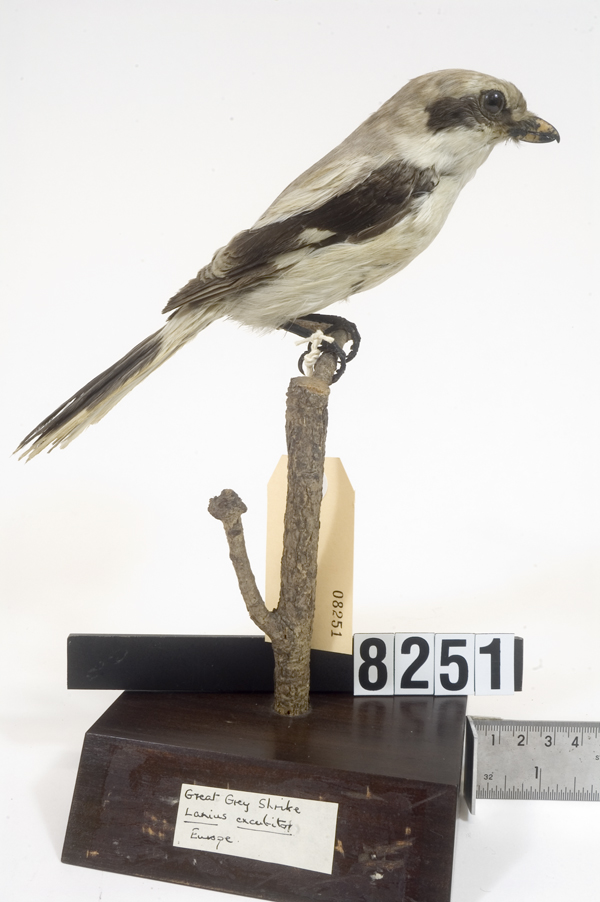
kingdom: Animalia
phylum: Chordata
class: Aves
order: Passeriformes
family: Laniidae
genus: Lanius
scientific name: Lanius excubitor
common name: Great grey shrike
